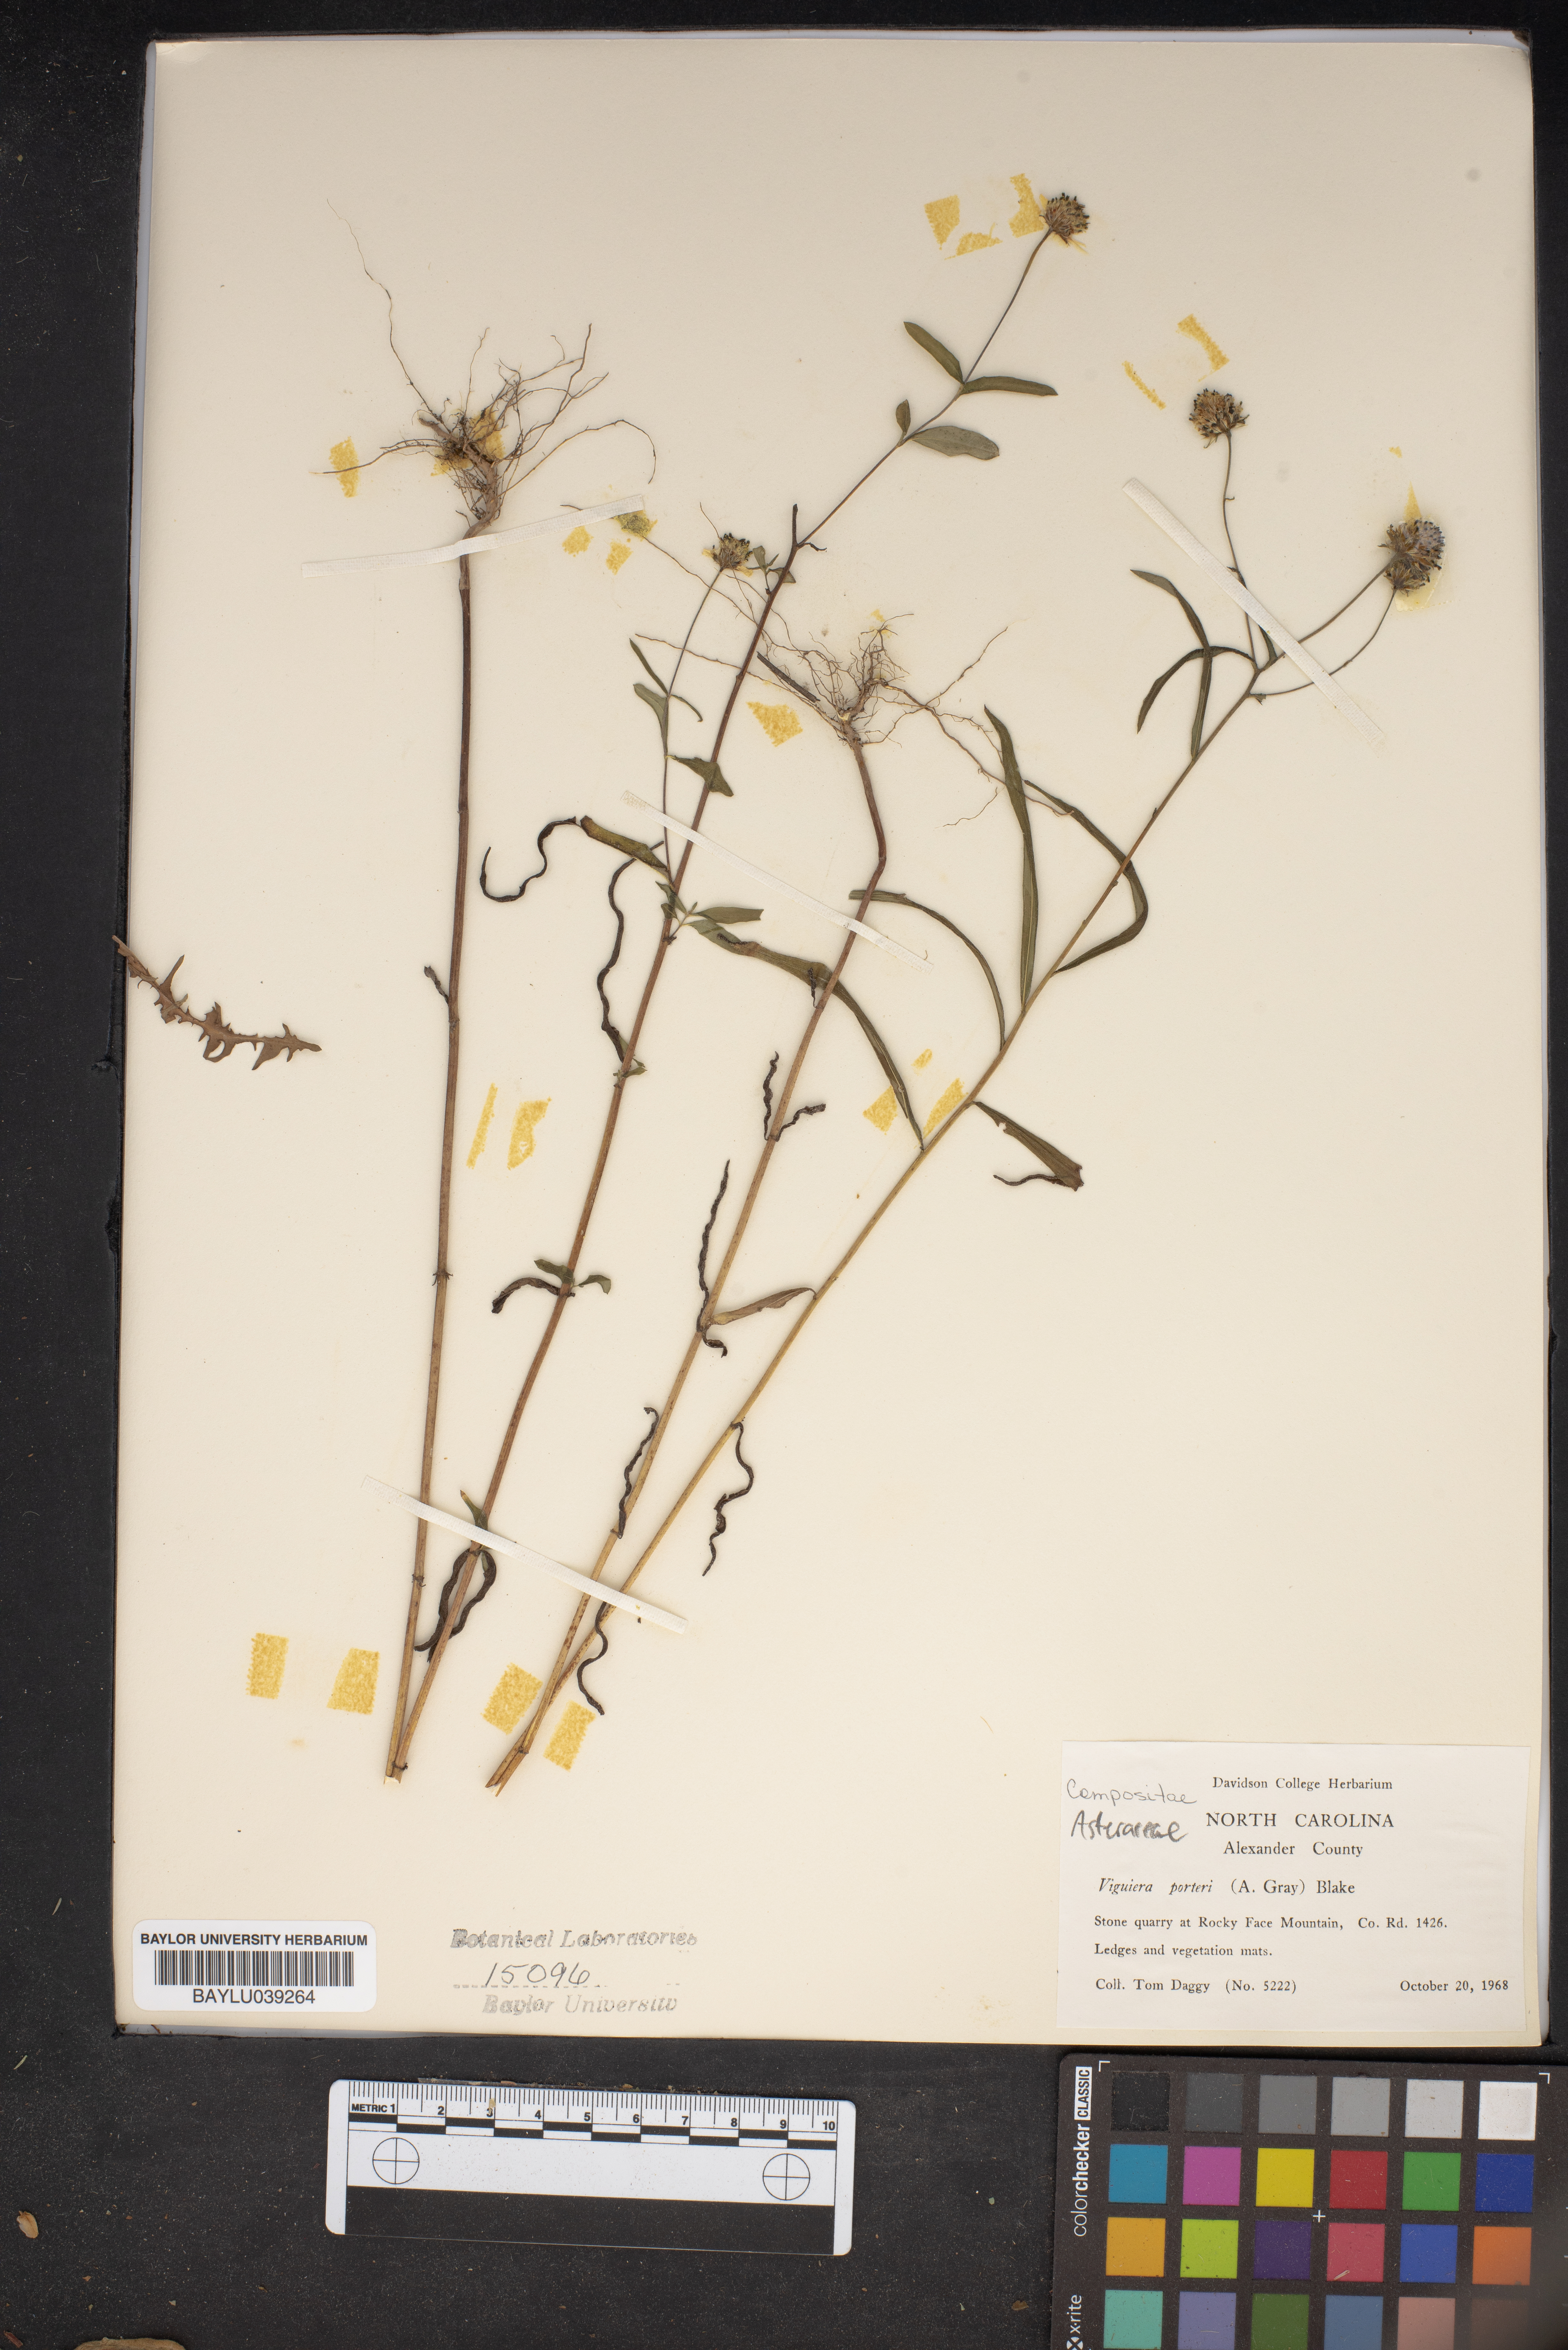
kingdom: Plantae
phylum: Tracheophyta
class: Magnoliopsida
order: Asterales
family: Asteraceae
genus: Helianthus
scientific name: Helianthus porteri
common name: Porter's sunflower
